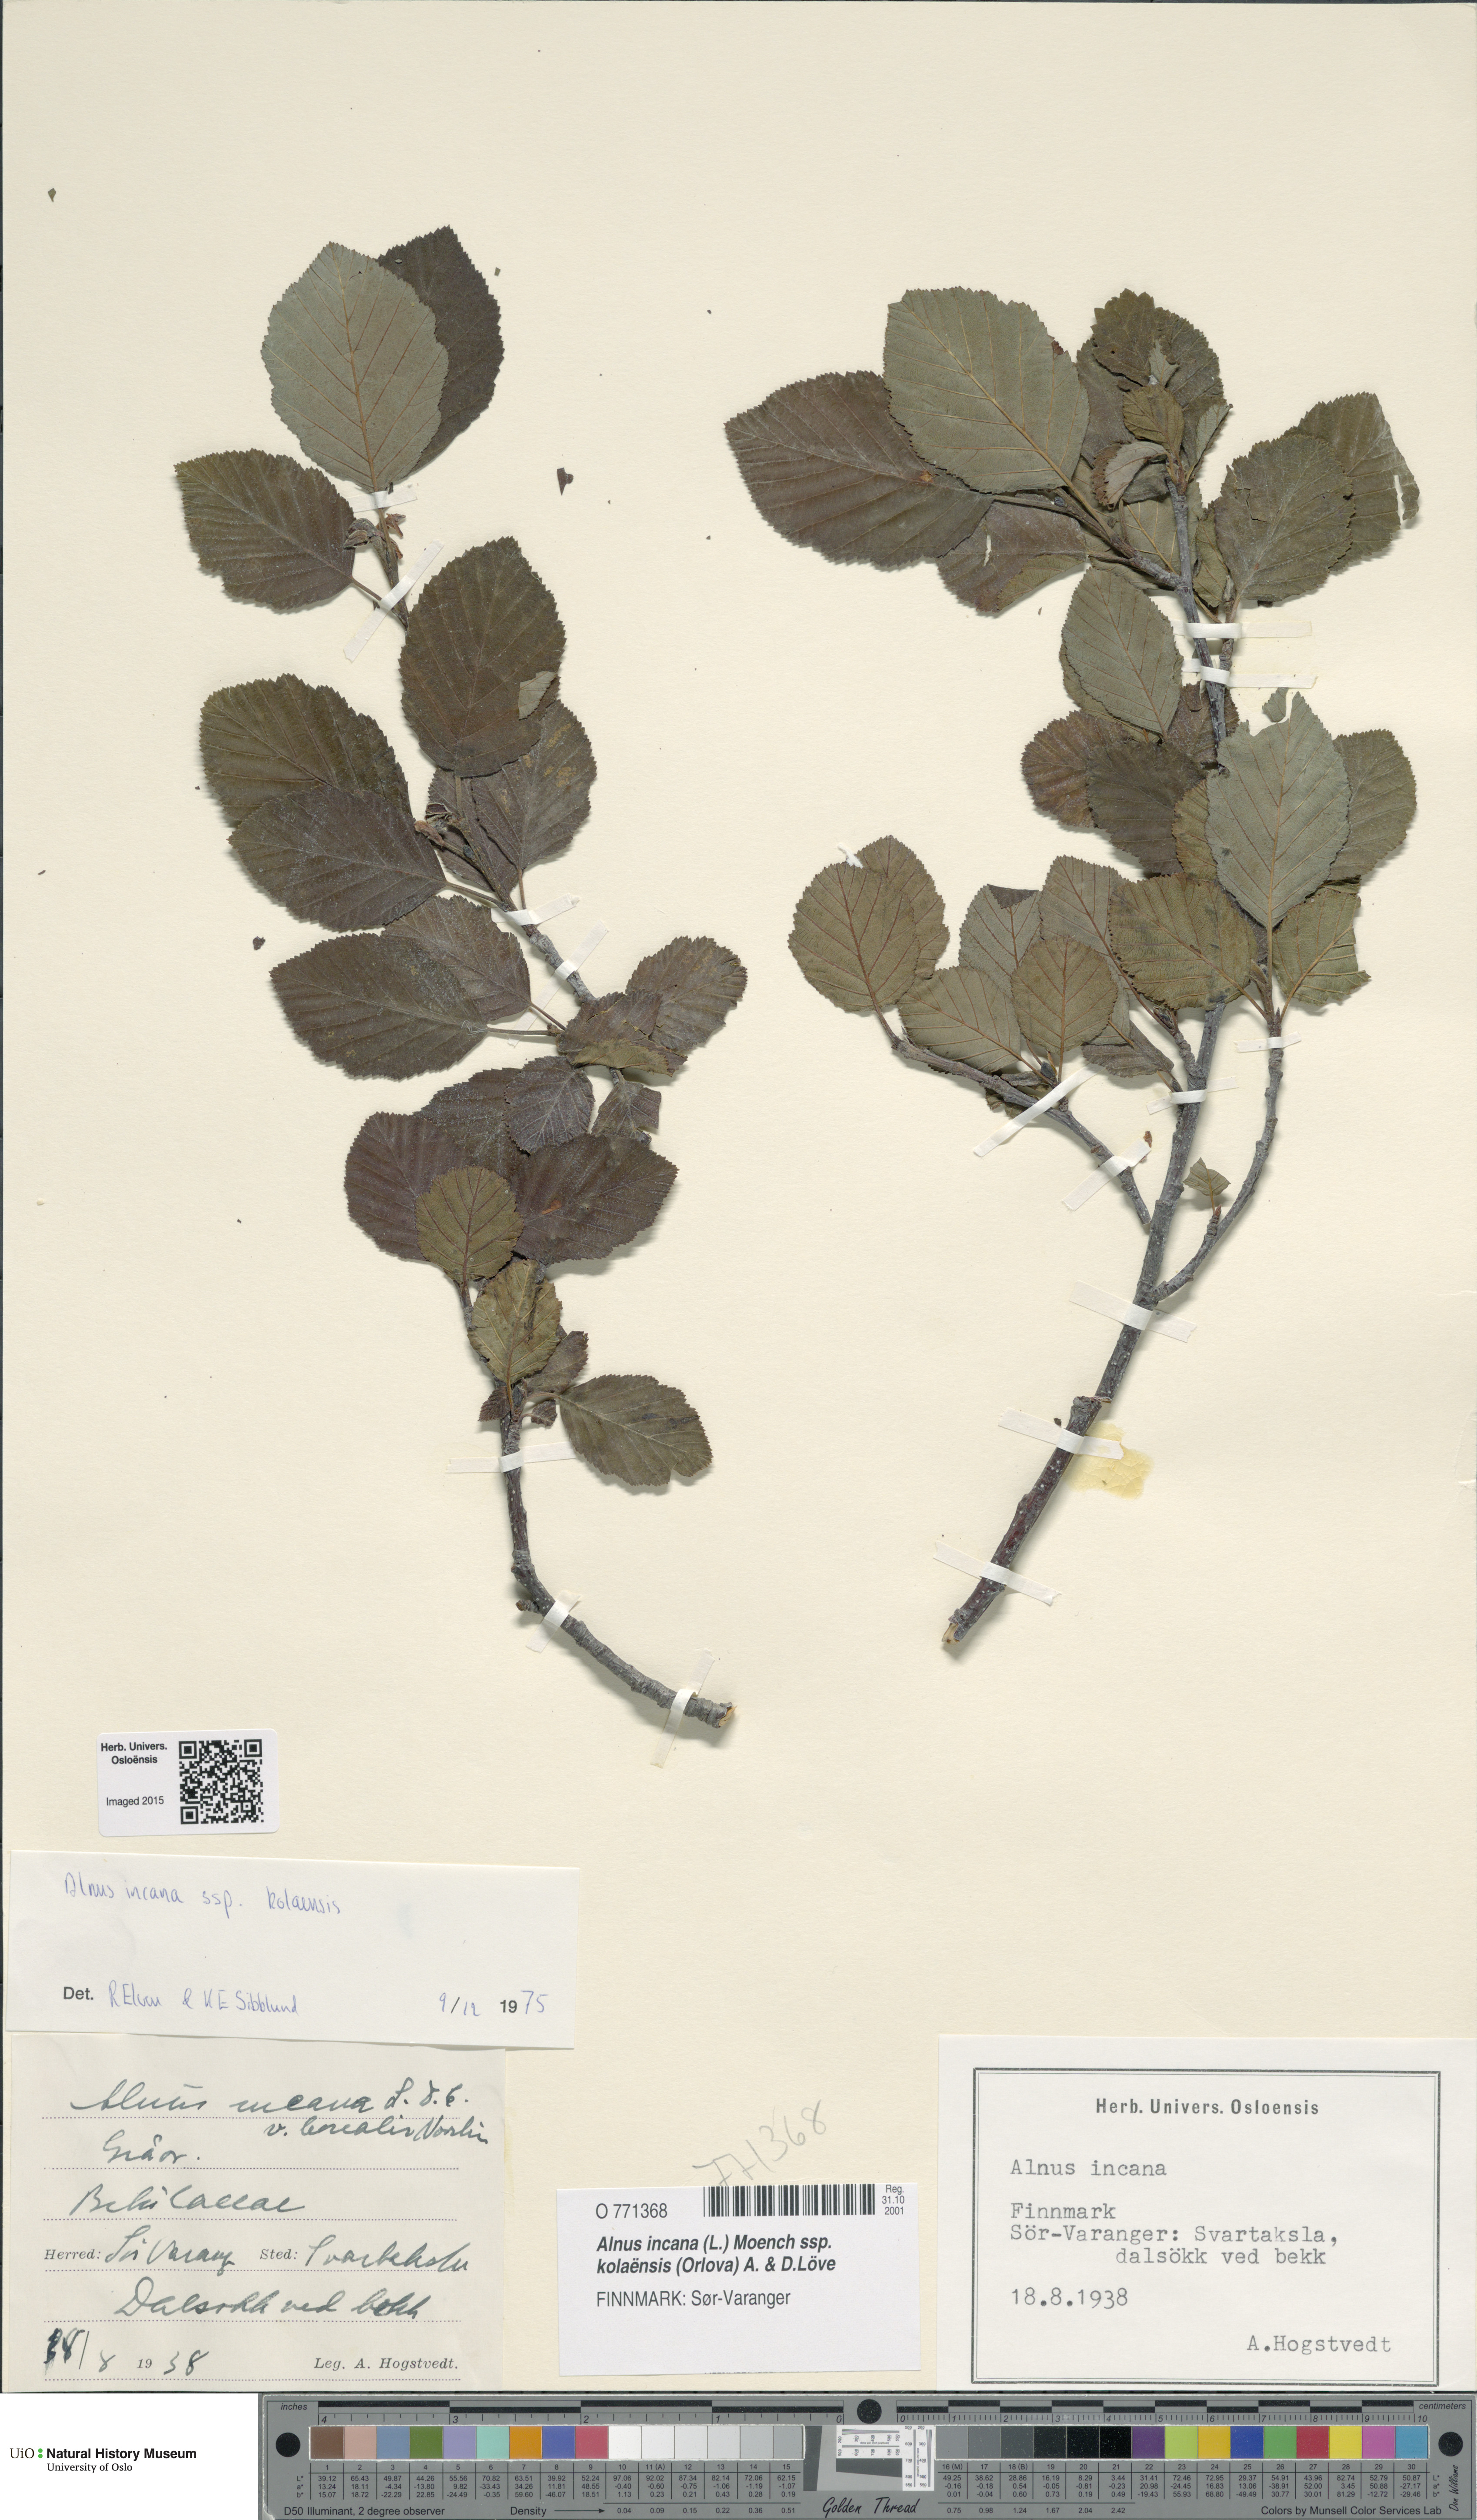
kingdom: Plantae
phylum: Tracheophyta
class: Magnoliopsida
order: Fagales
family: Betulaceae
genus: Alnus
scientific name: Alnus incana
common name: Grey alder
